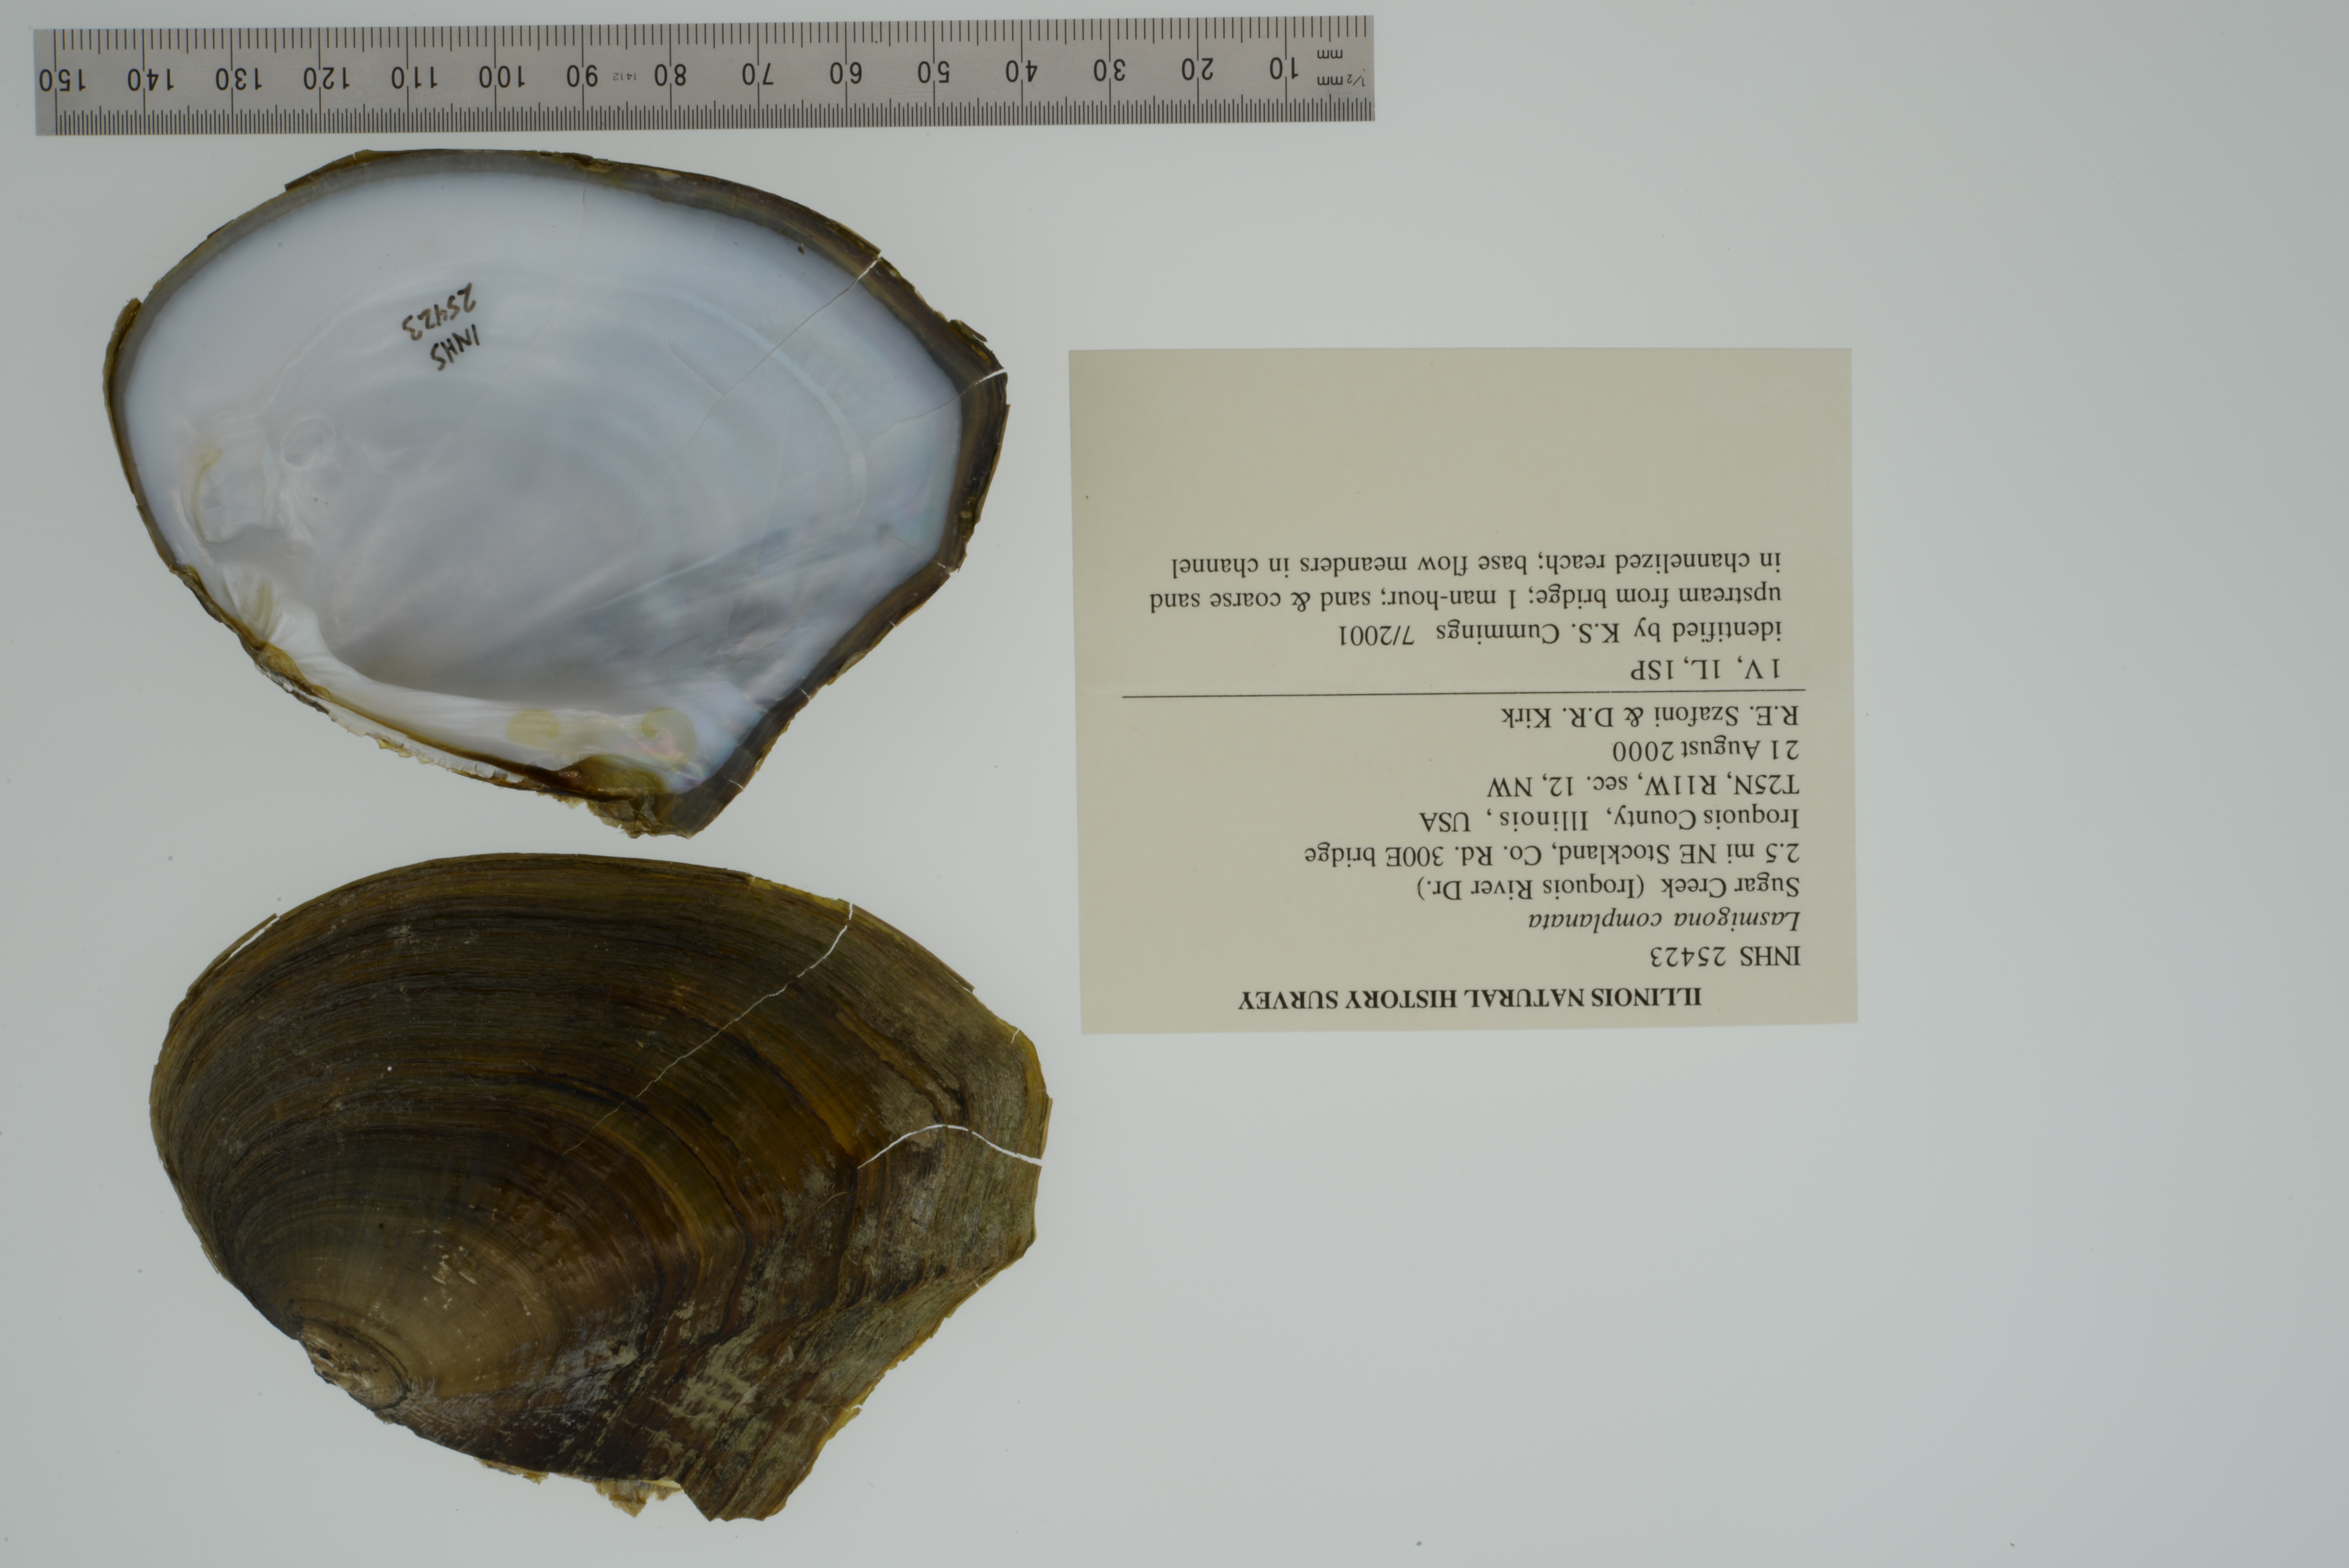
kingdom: Animalia
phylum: Mollusca
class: Bivalvia
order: Unionida
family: Unionidae
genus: Lasmigona
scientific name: Lasmigona complanata
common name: White heelsplitter
